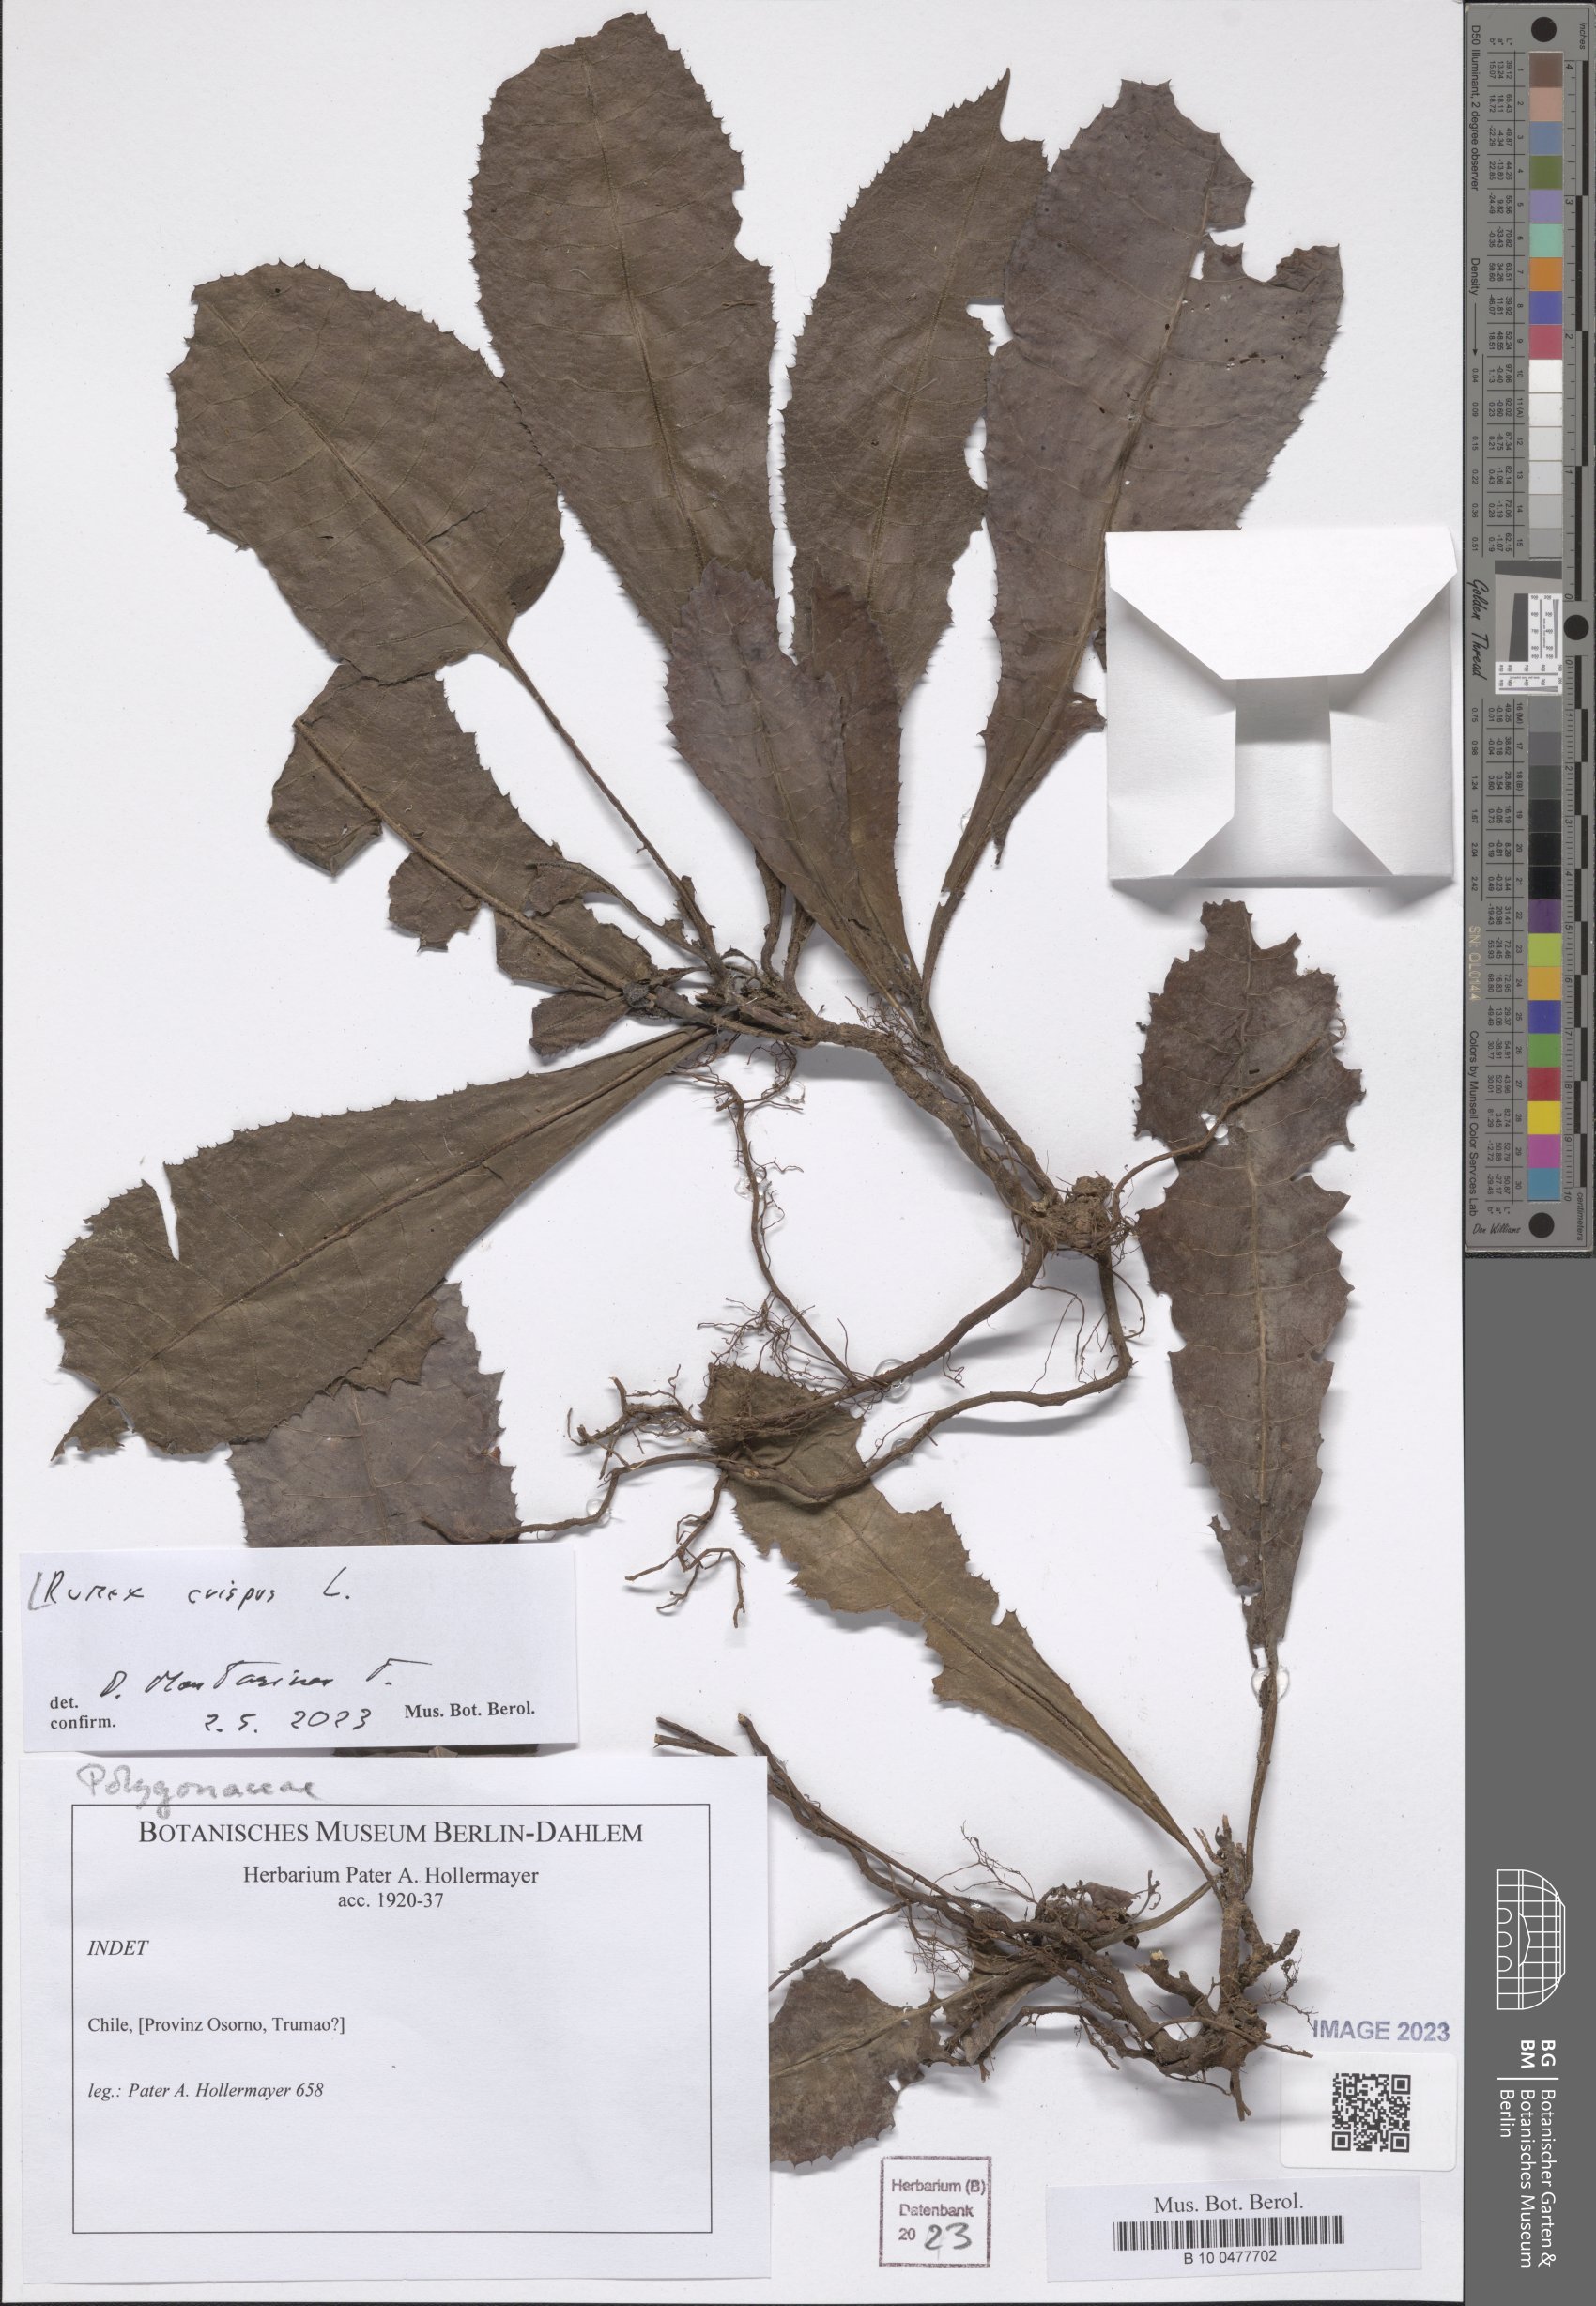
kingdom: Plantae
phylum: Tracheophyta
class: Magnoliopsida
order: Caryophyllales
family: Polygonaceae
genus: Rumex
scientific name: Rumex crispus
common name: Curled dock
